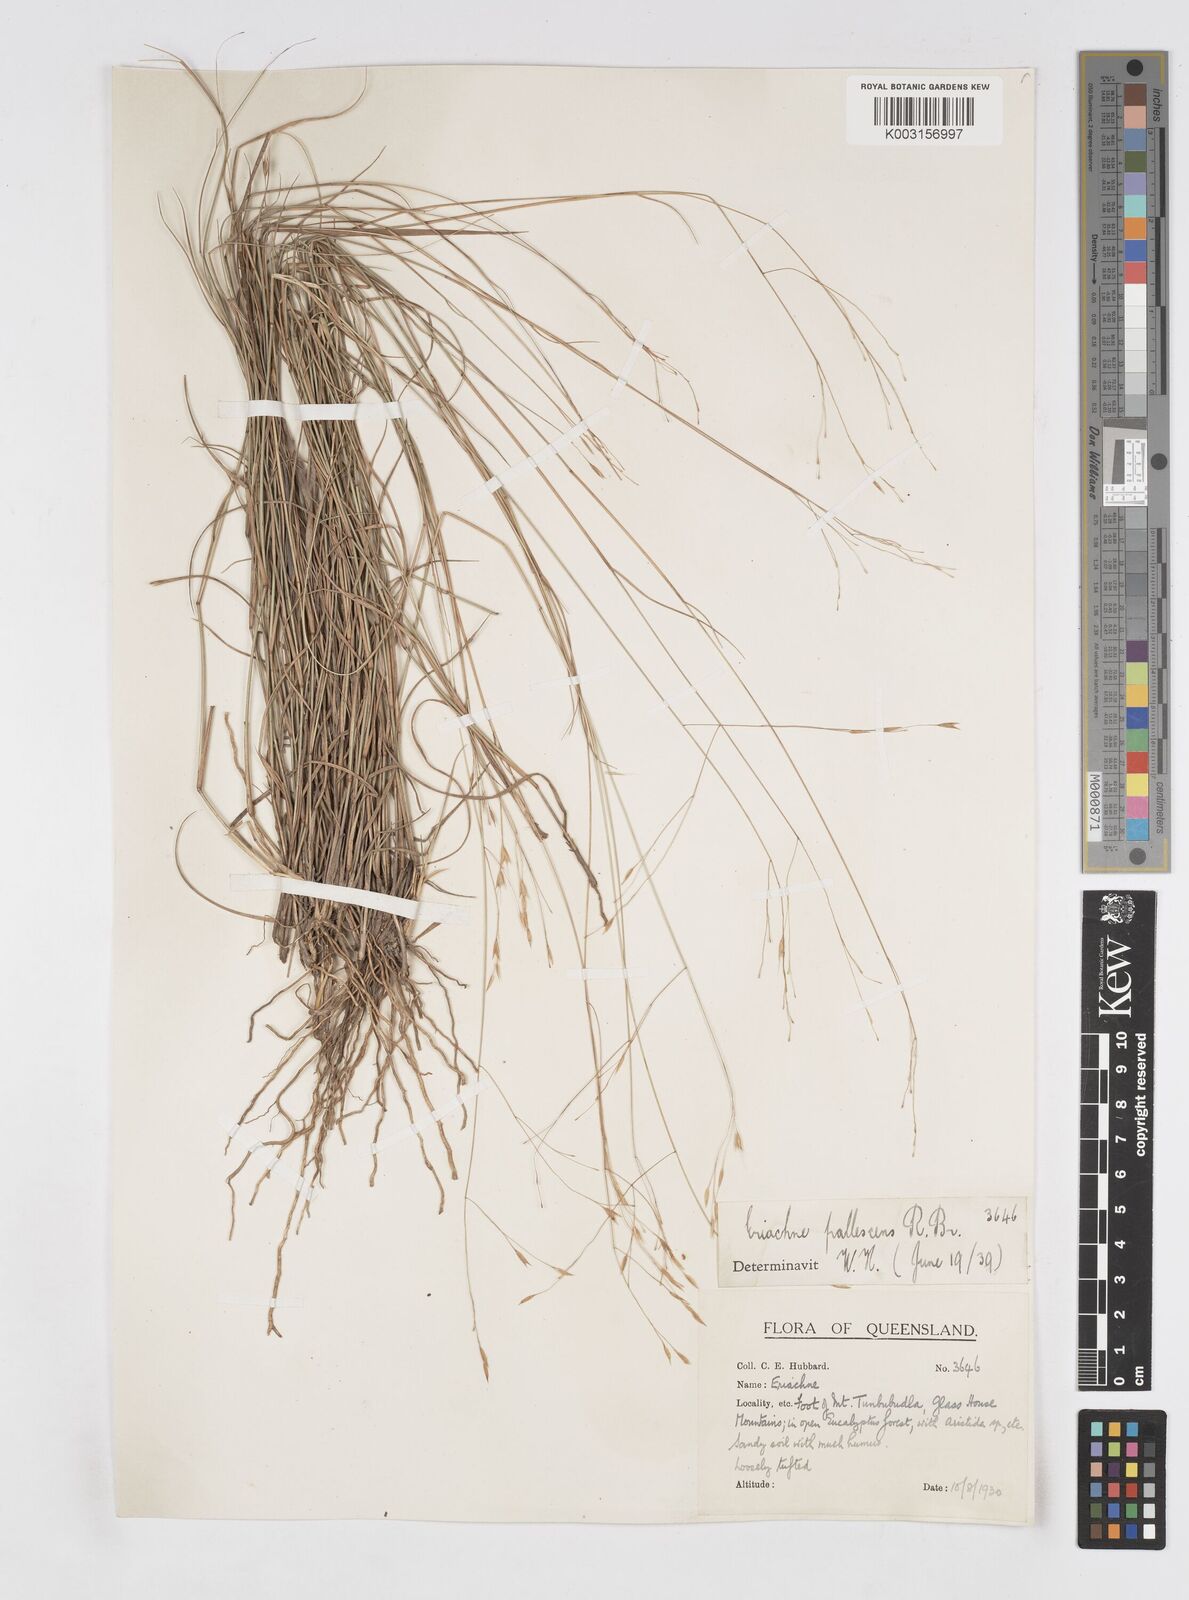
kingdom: Plantae
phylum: Tracheophyta
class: Liliopsida
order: Poales
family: Poaceae
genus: Eriachne
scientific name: Eriachne pallescens
